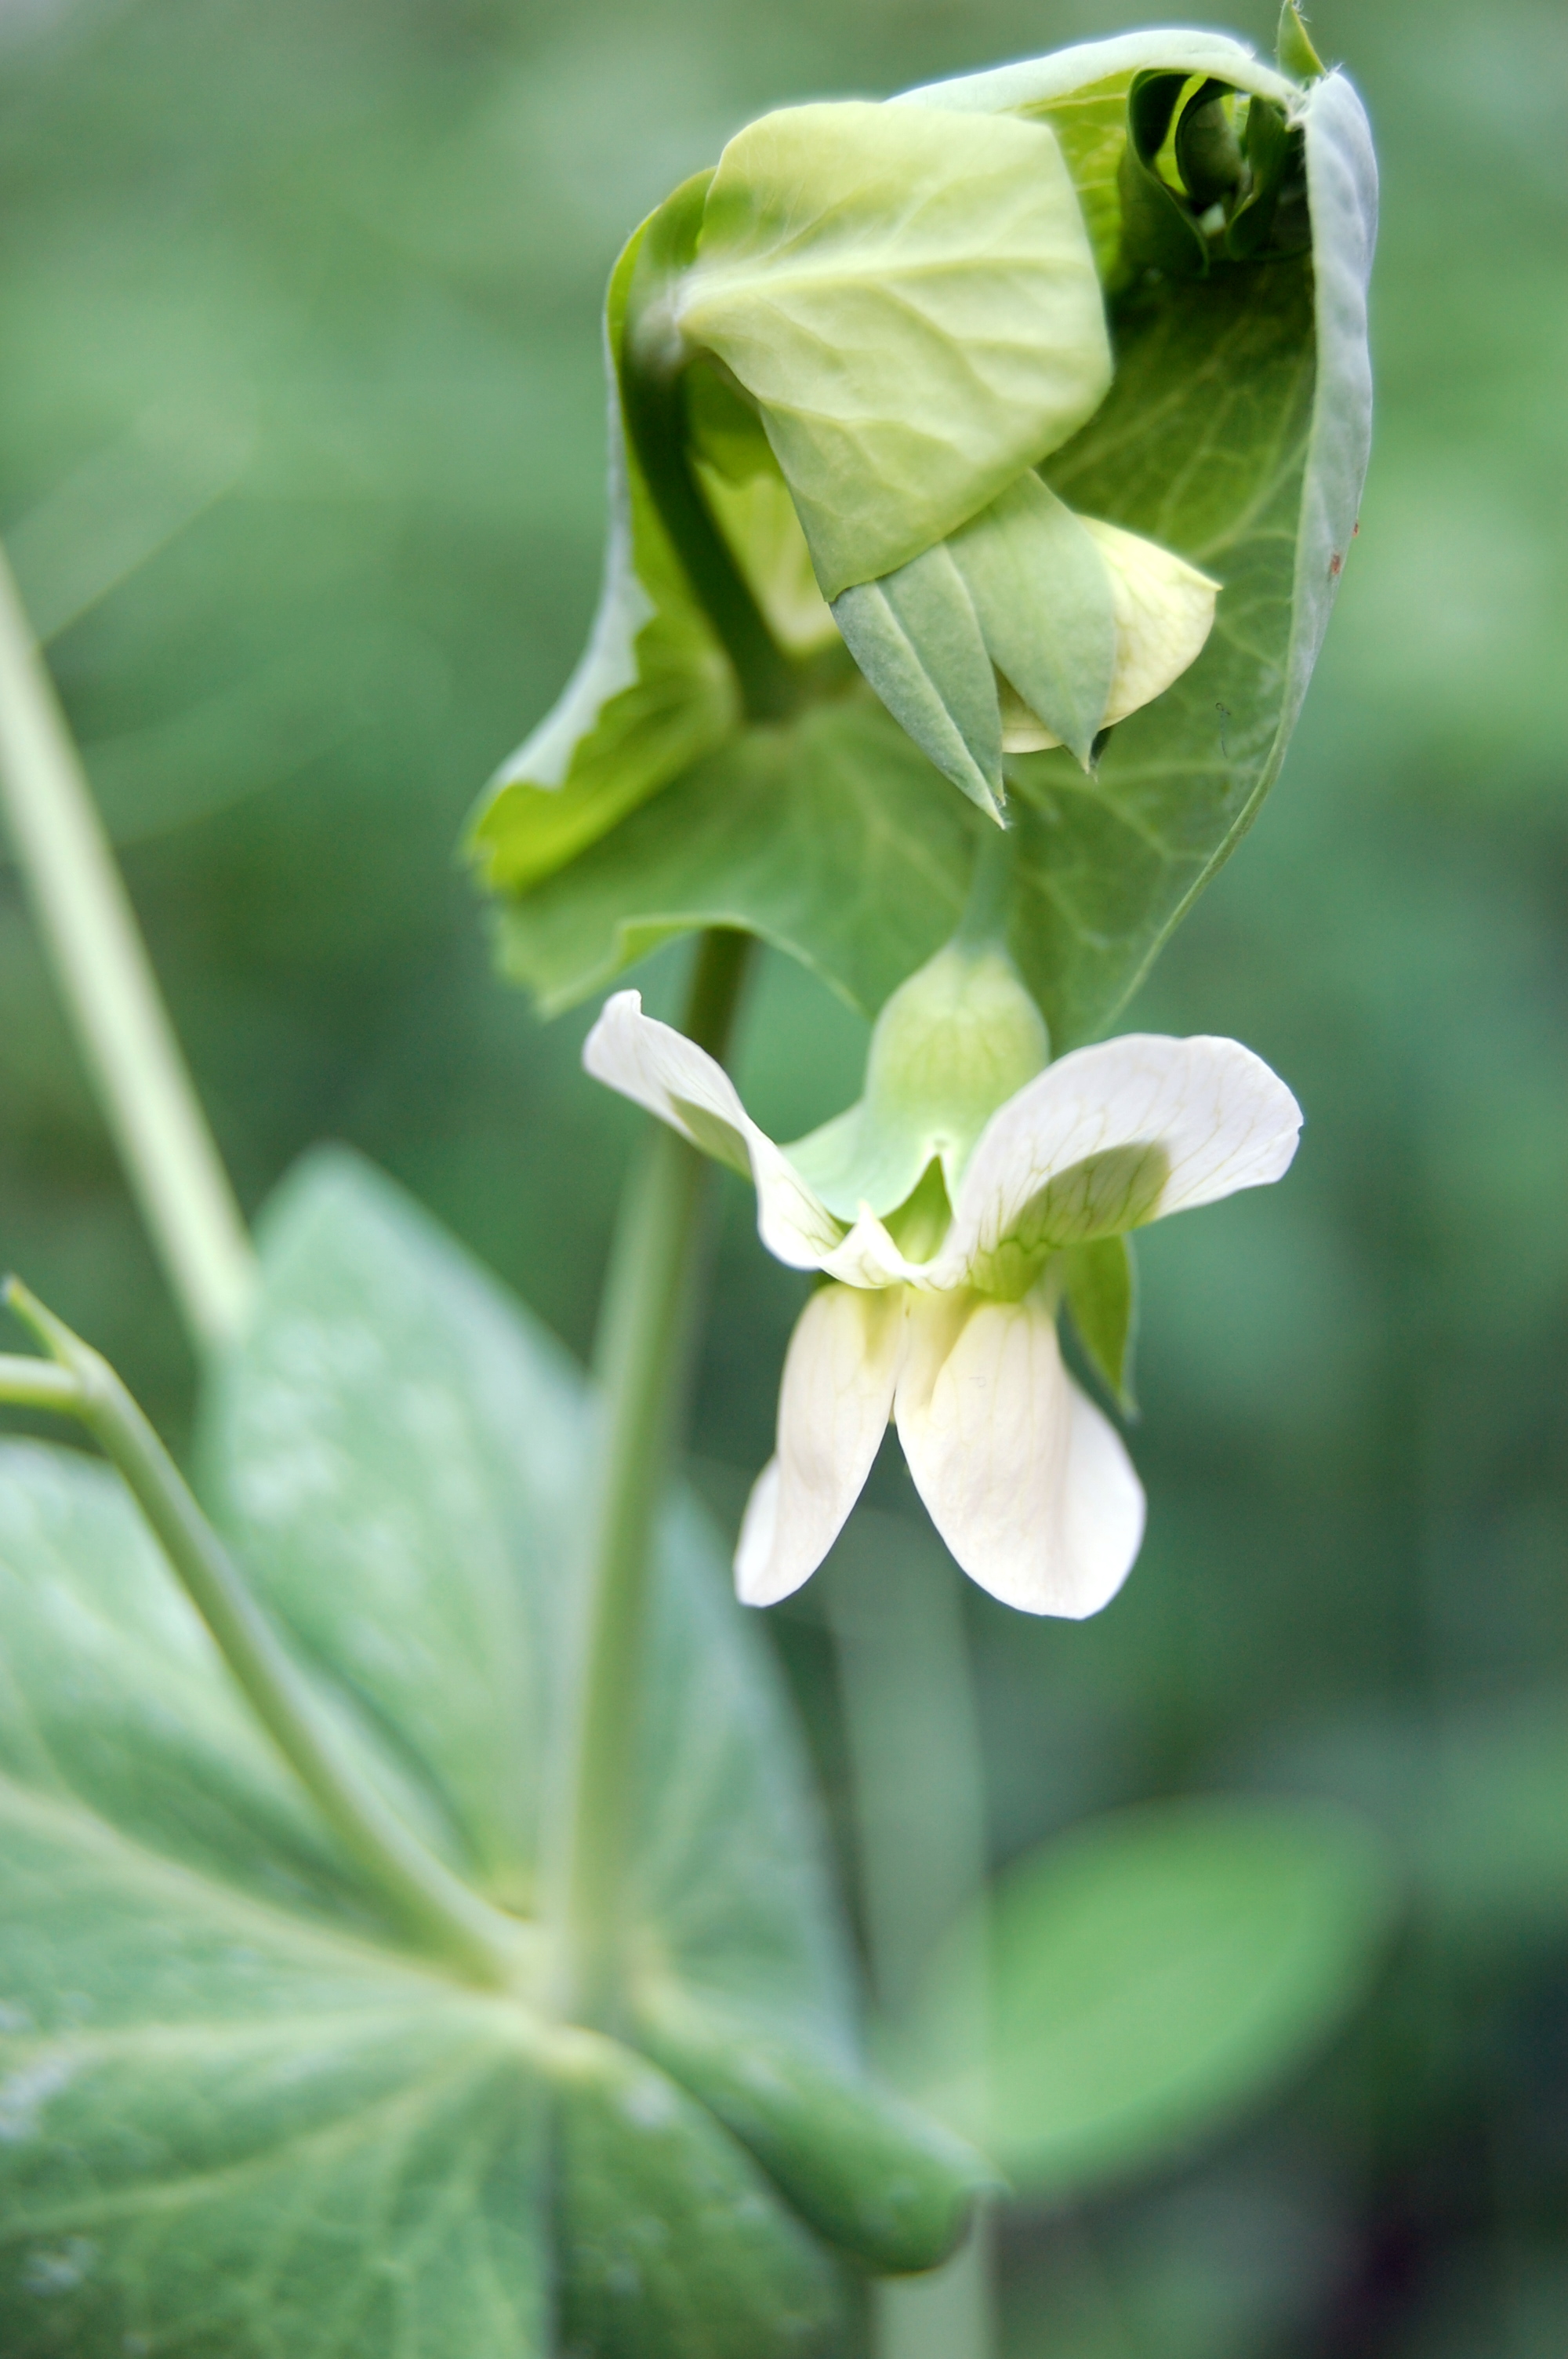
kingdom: Plantae
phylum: Tracheophyta
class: Magnoliopsida
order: Fabales
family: Fabaceae
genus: Lathyrus
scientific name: Lathyrus oleraceus
